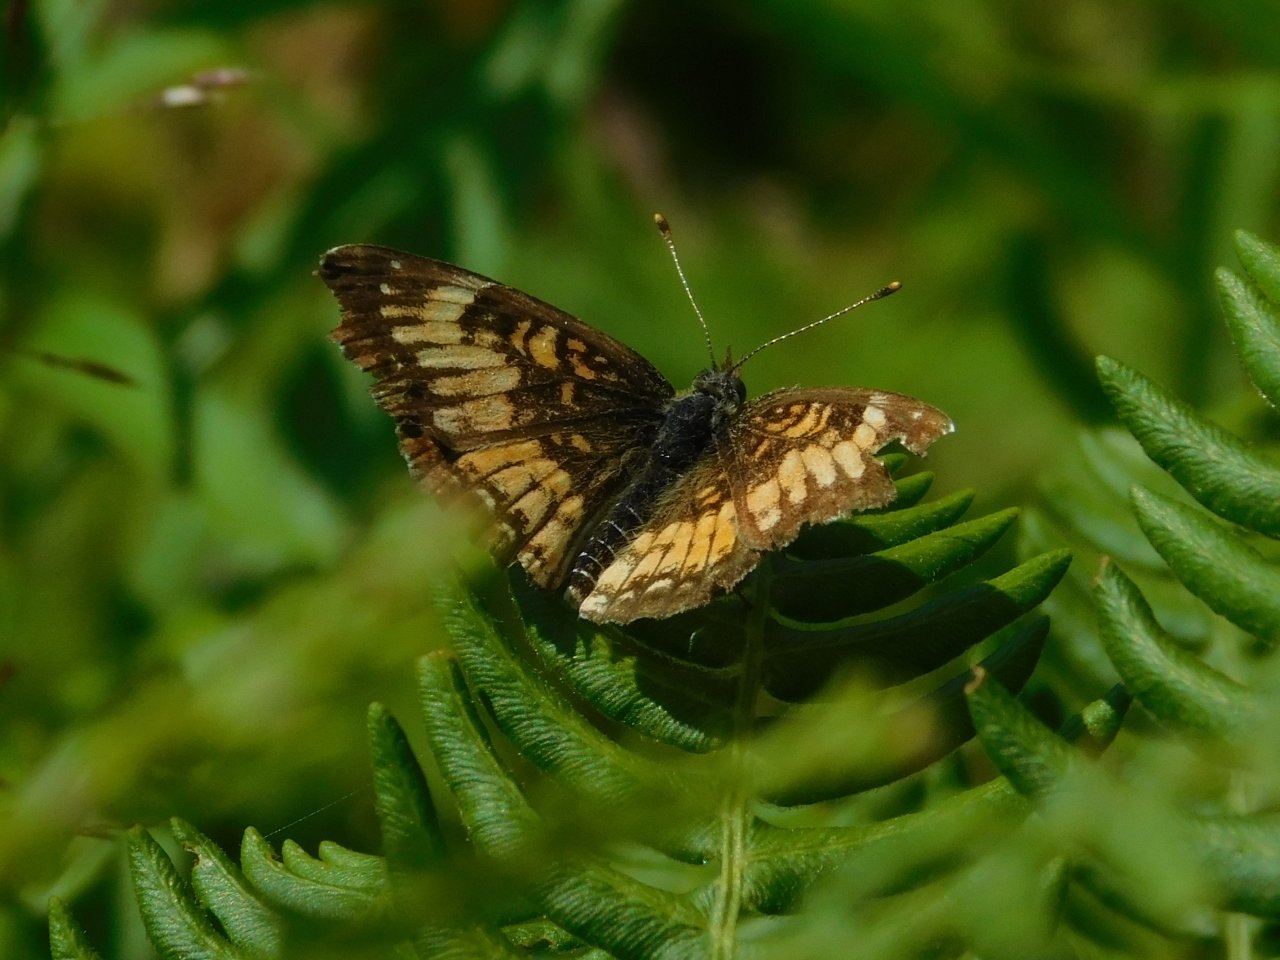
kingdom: Animalia
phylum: Arthropoda
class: Insecta
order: Lepidoptera
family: Nymphalidae
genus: Chlosyne
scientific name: Chlosyne harrisii
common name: Harris's Checkerspot
